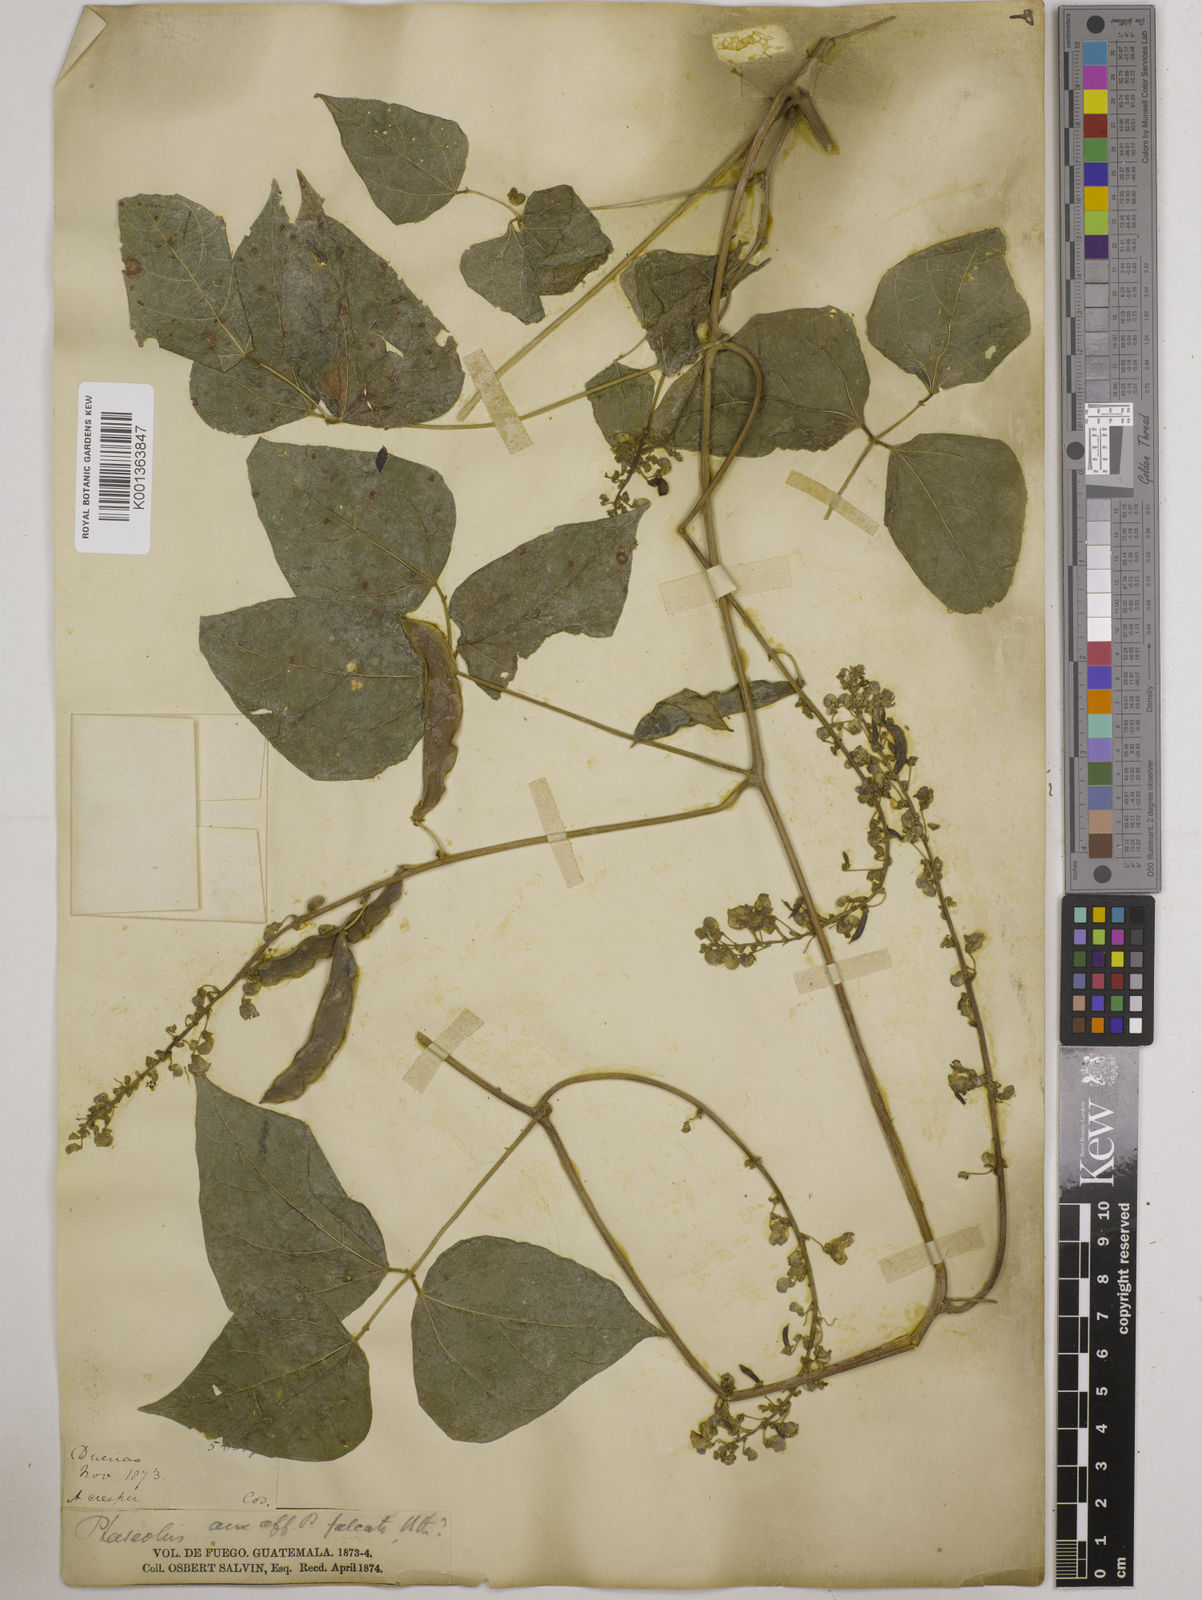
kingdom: Plantae
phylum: Tracheophyta
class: Magnoliopsida
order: Fabales
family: Fabaceae
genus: Phaseolus
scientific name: Phaseolus lunatus
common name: Sieva bean
